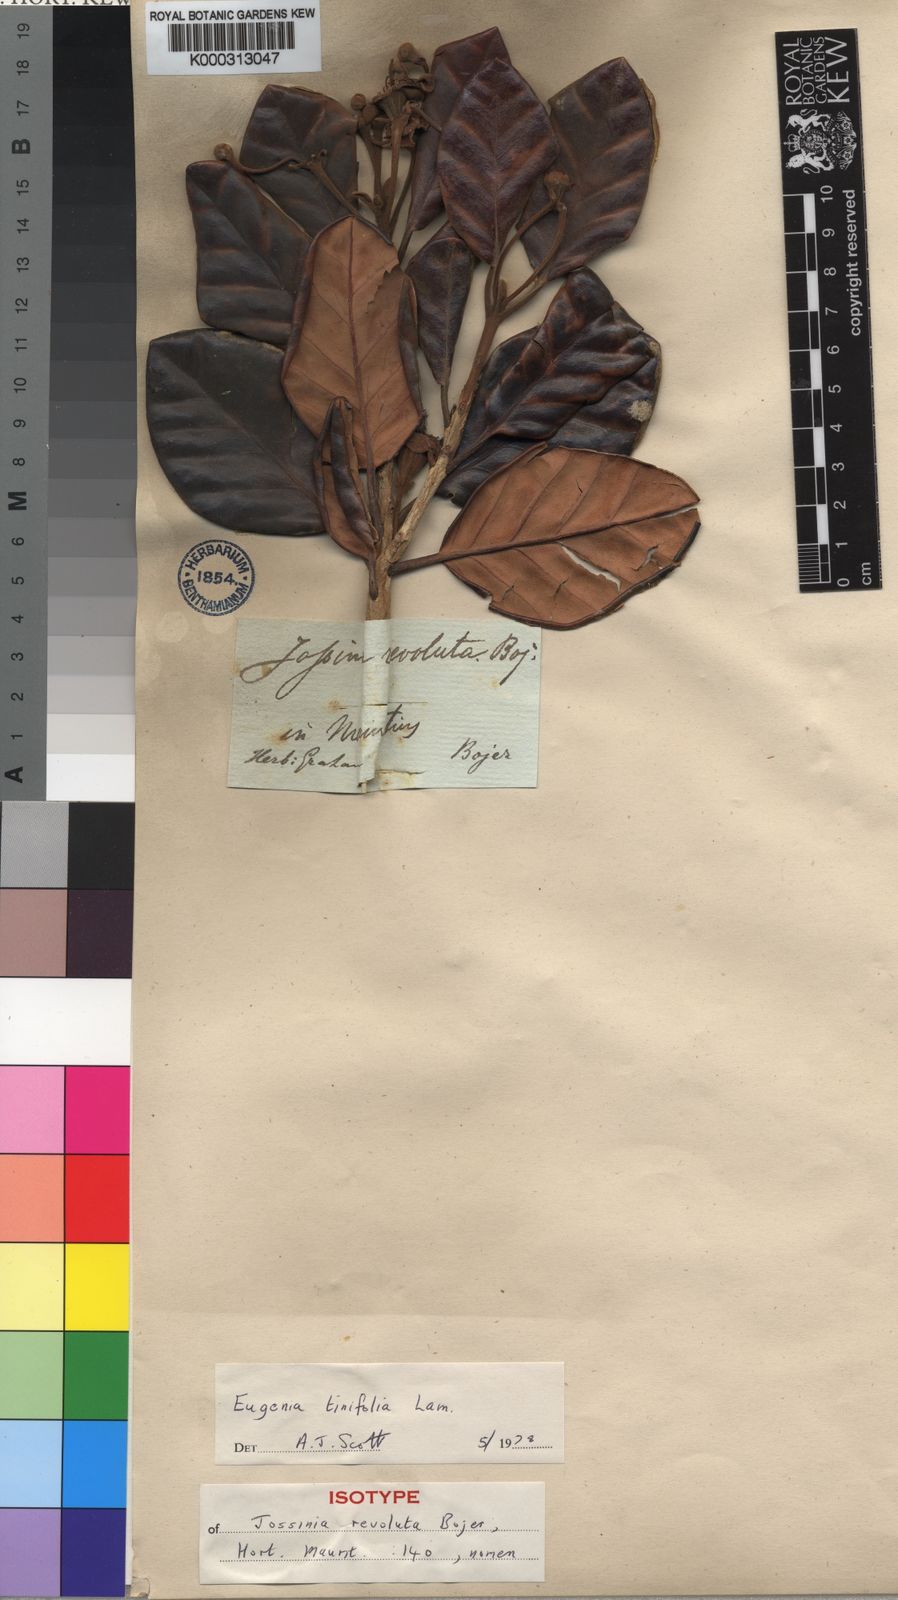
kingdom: Plantae
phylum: Tracheophyta
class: Magnoliopsida
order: Myrtales
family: Myrtaceae
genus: Eugenia
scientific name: Eugenia tinifolia
